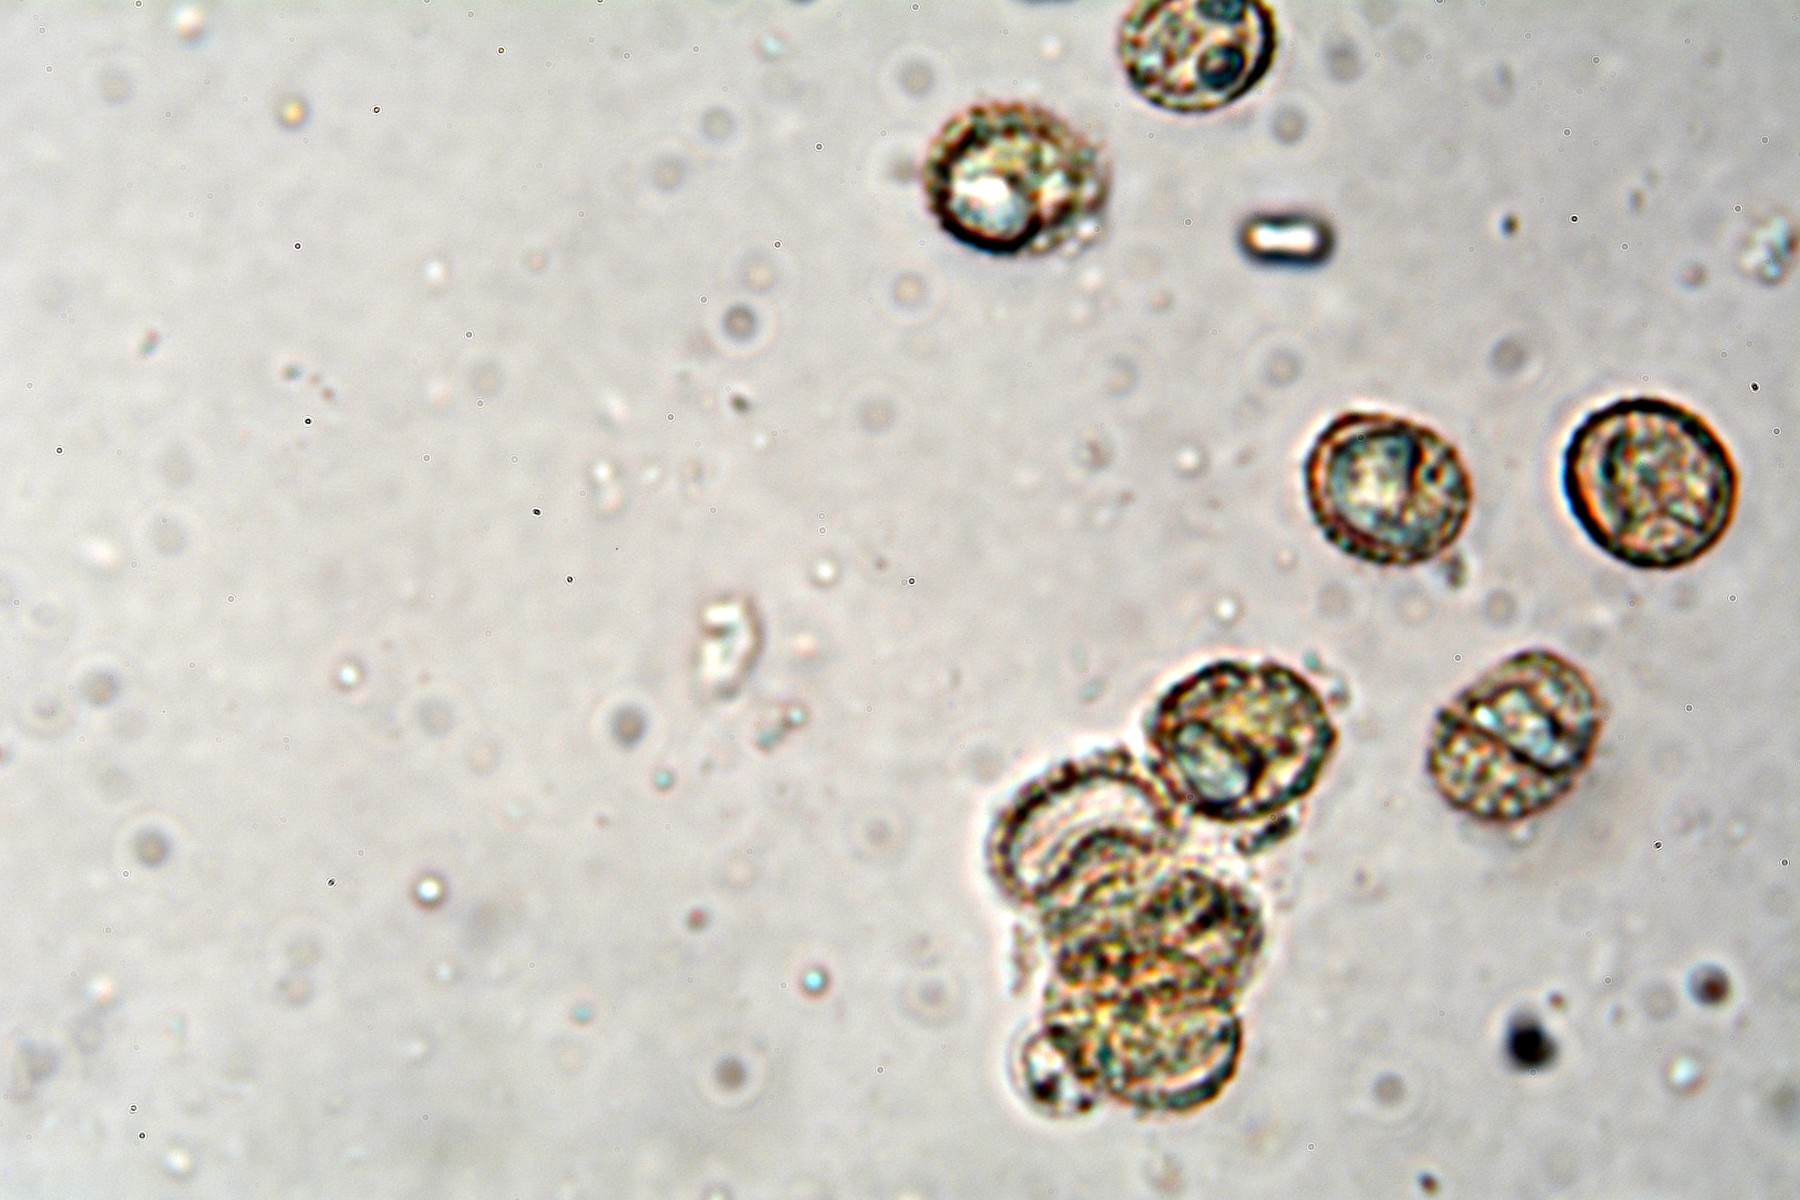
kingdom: Fungi
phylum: Basidiomycota
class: Agaricomycetes
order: Agaricales
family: Crepidotaceae
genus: Crepidotus
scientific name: Crepidotus cesatii
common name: almindelig muslingesvamp
